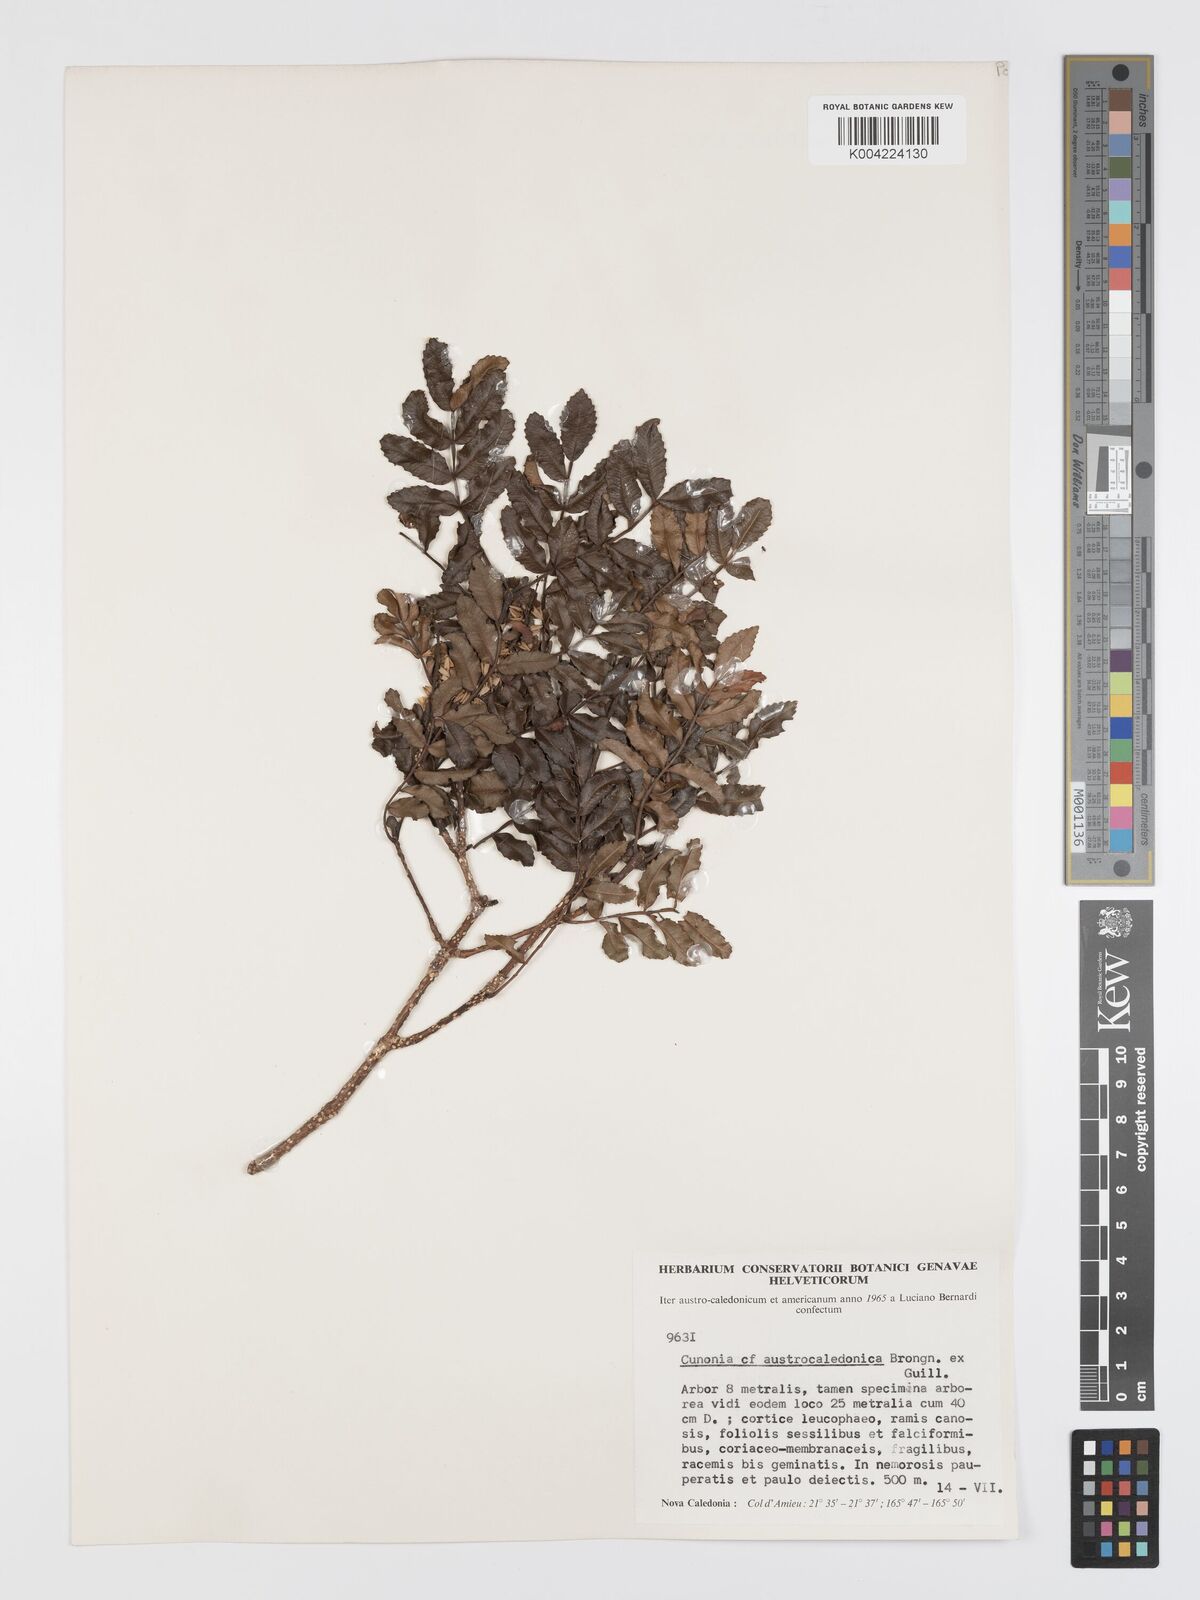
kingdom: Plantae
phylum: Tracheophyta
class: Magnoliopsida
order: Oxalidales
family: Cunoniaceae
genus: Cunonia
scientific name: Cunonia austrocaledonica
